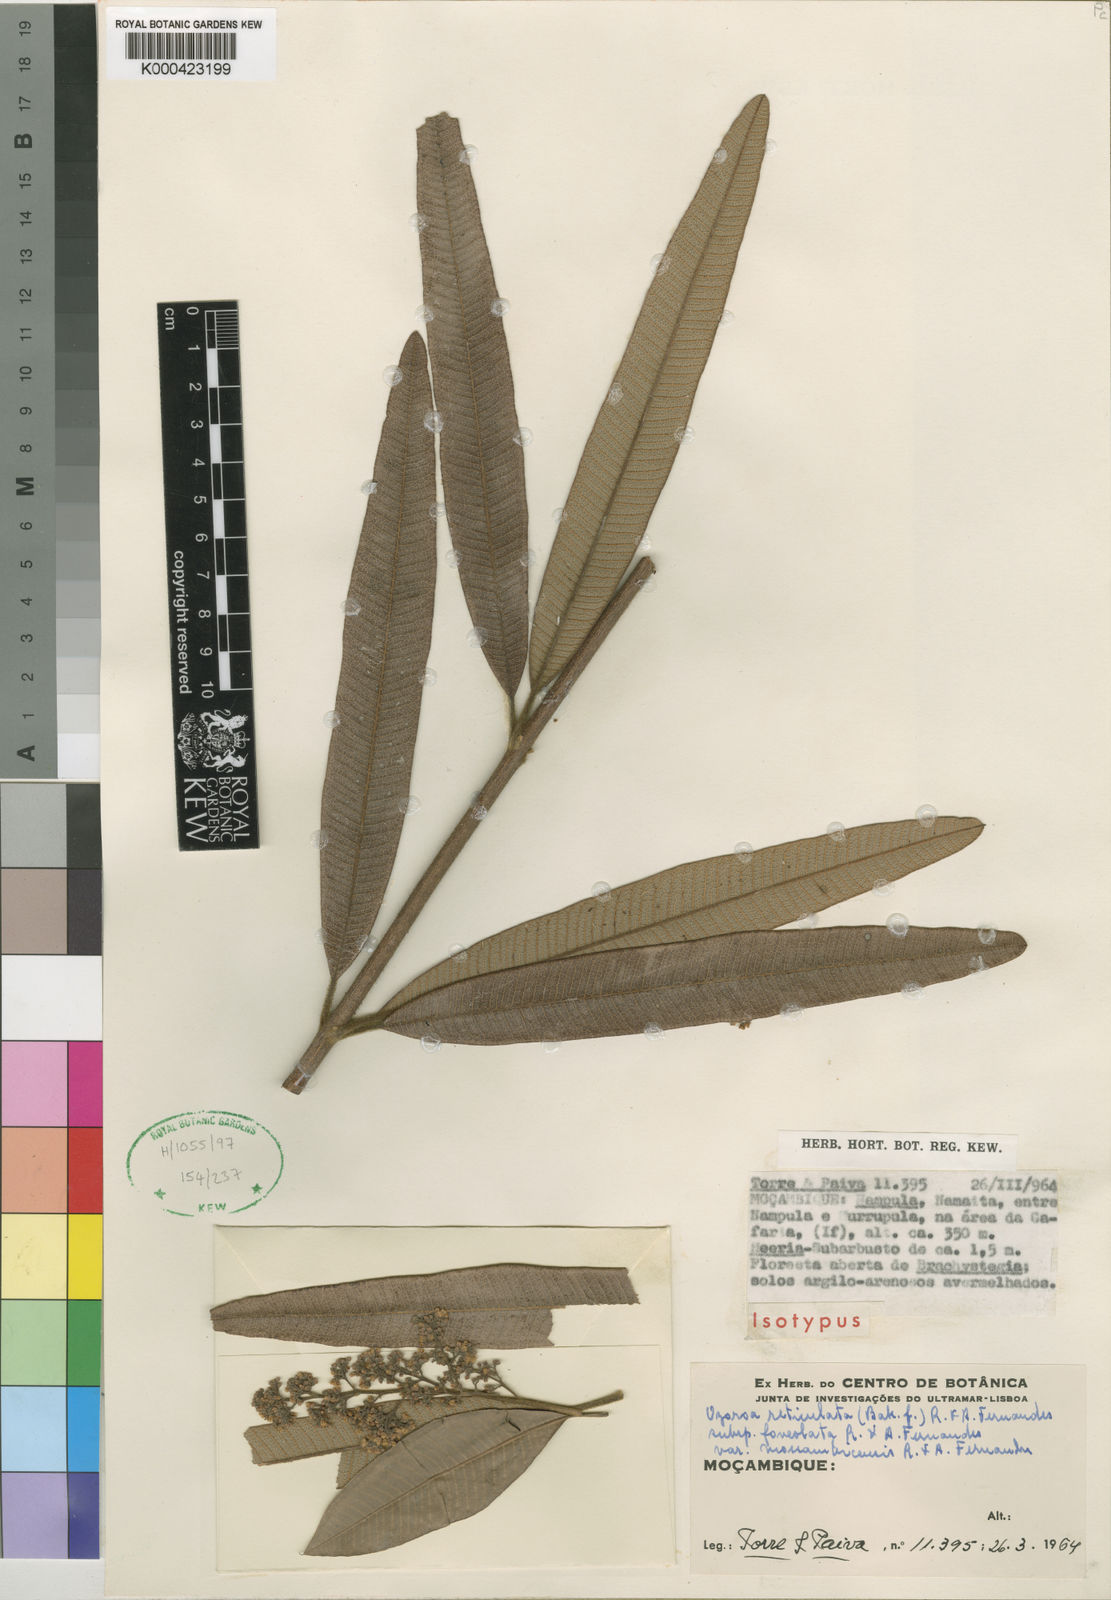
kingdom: Plantae
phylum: Tracheophyta
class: Magnoliopsida
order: Sapindales
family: Anacardiaceae
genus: Ozoroa
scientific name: Ozoroa insignis
